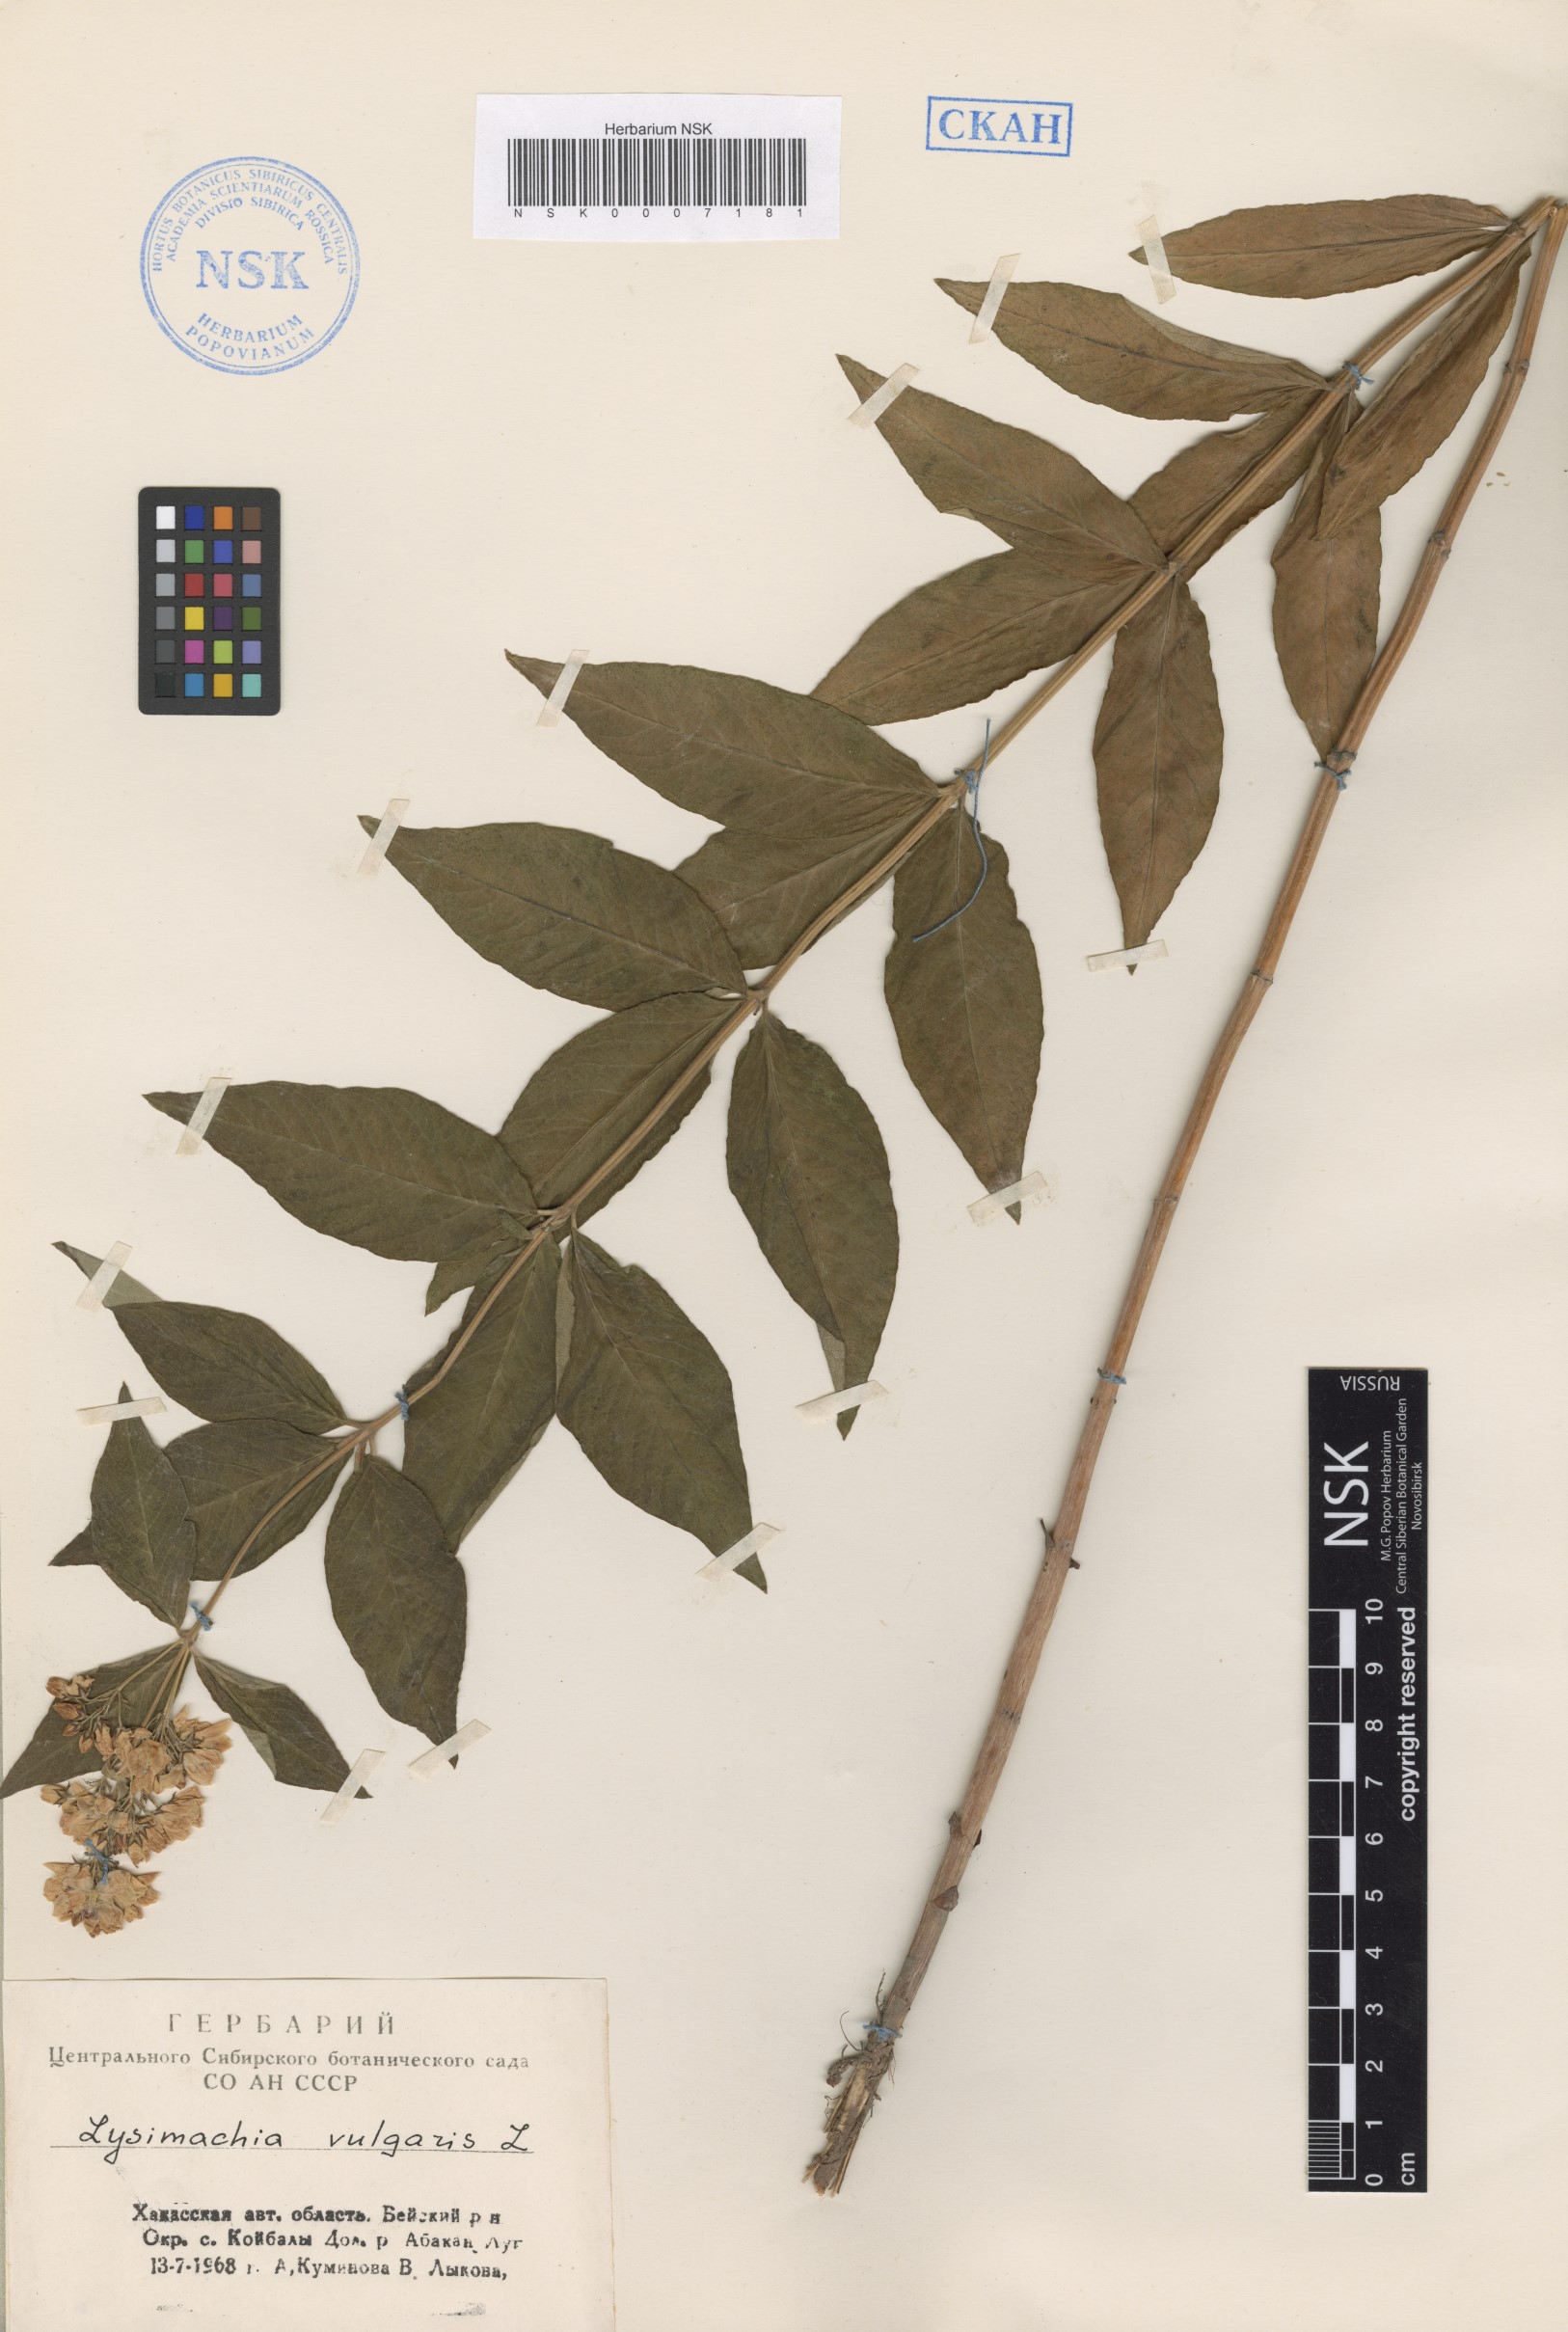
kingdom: Plantae
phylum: Tracheophyta
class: Magnoliopsida
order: Ericales
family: Primulaceae
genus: Lysimachia
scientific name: Lysimachia vulgaris
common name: Yellow loosestrife
